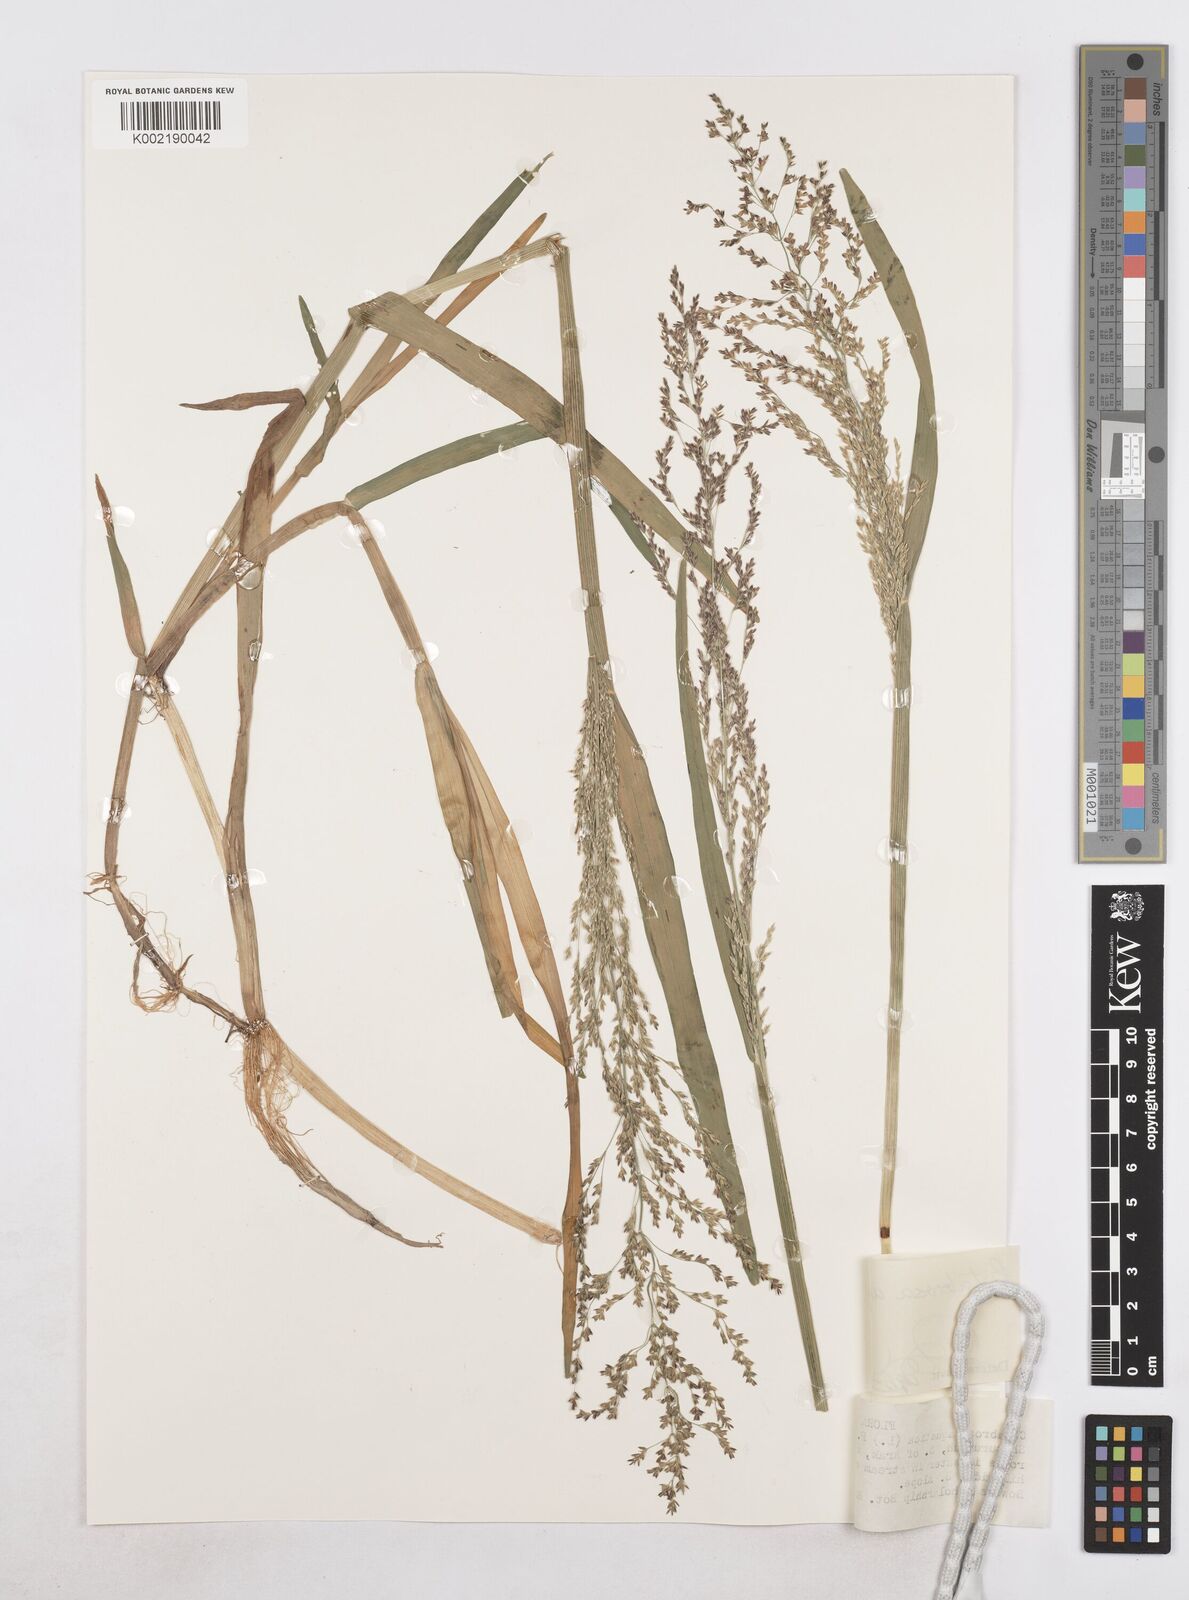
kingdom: Plantae
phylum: Tracheophyta
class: Liliopsida
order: Poales
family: Poaceae
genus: Catabrosa
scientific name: Catabrosa aquatica
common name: Whorl-grass
